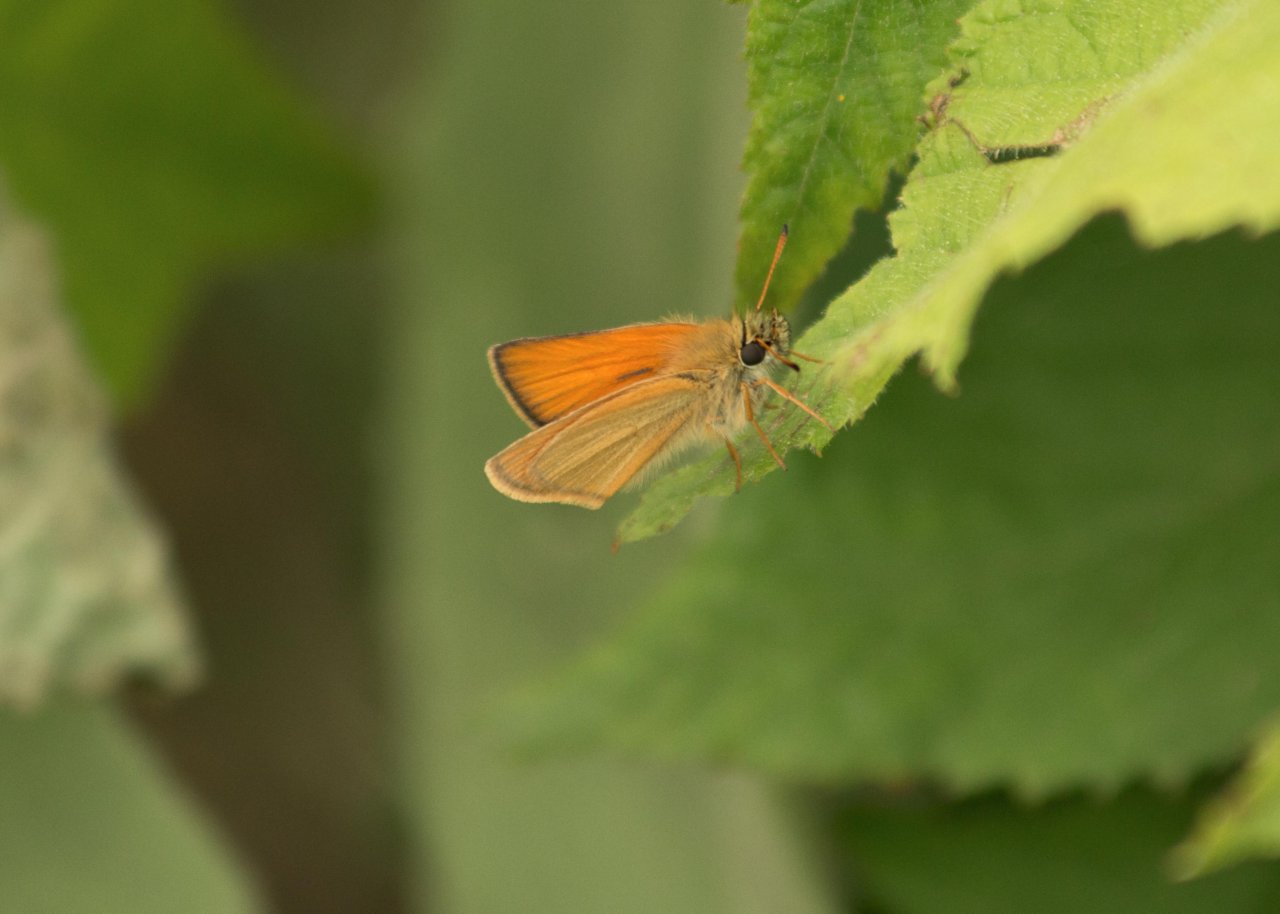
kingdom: Animalia
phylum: Arthropoda
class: Insecta
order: Lepidoptera
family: Hesperiidae
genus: Thymelicus
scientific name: Thymelicus lineola
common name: European Skipper
